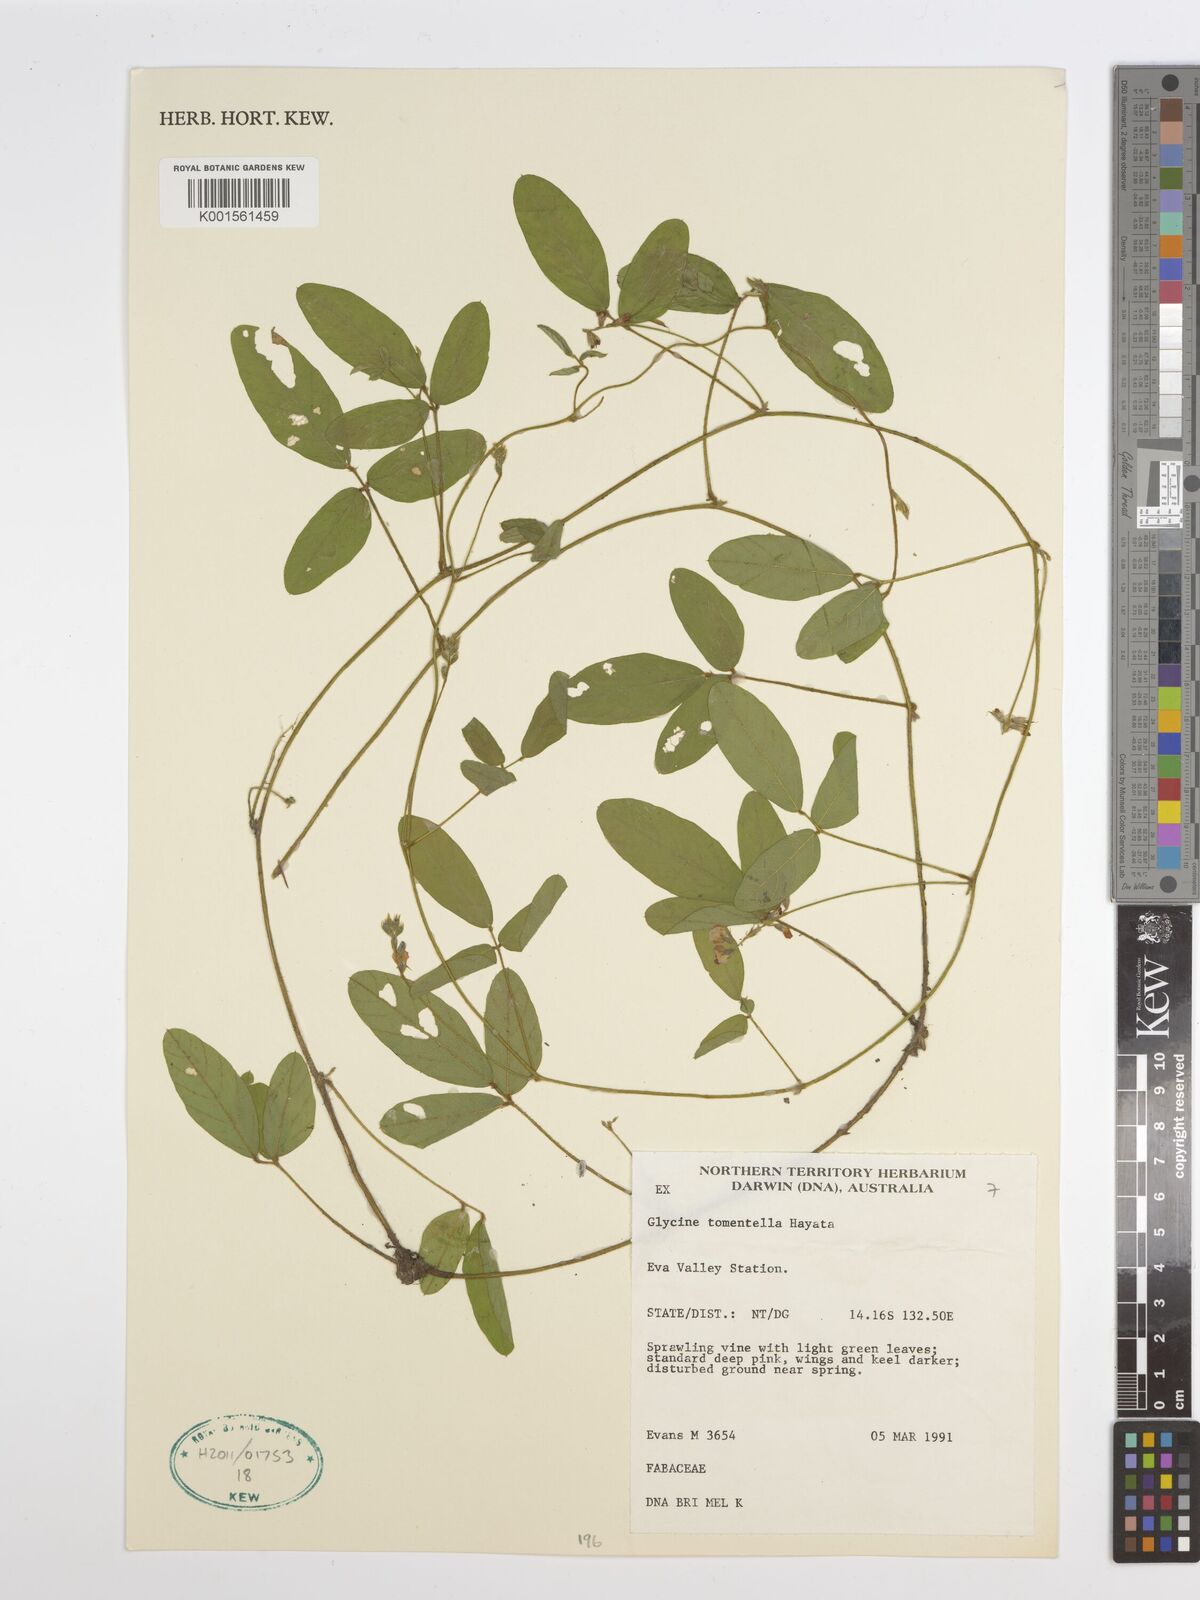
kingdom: Plantae
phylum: Tracheophyta
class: Magnoliopsida
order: Fabales
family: Fabaceae
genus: Glycine
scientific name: Glycine tomentella
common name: Hairy glycine
